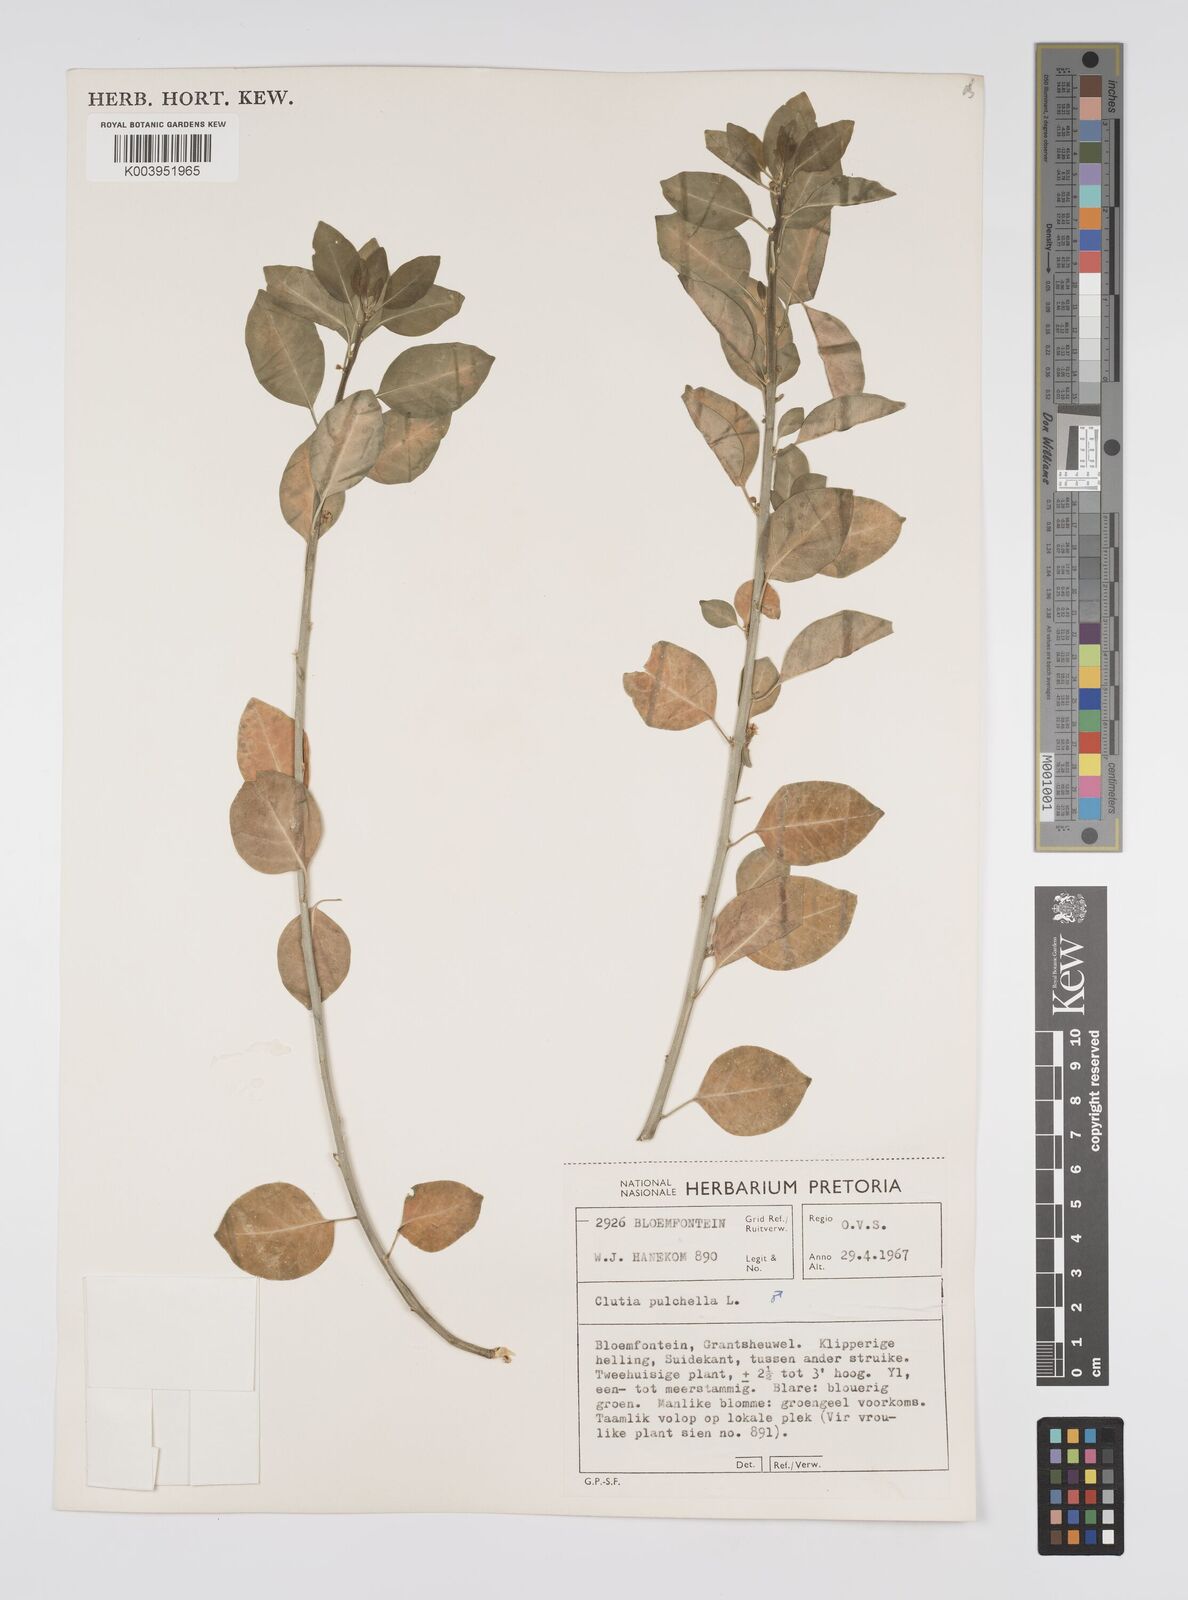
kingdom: Plantae
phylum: Tracheophyta
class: Magnoliopsida
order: Malpighiales
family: Peraceae
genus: Clutia
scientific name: Clutia pulchella
